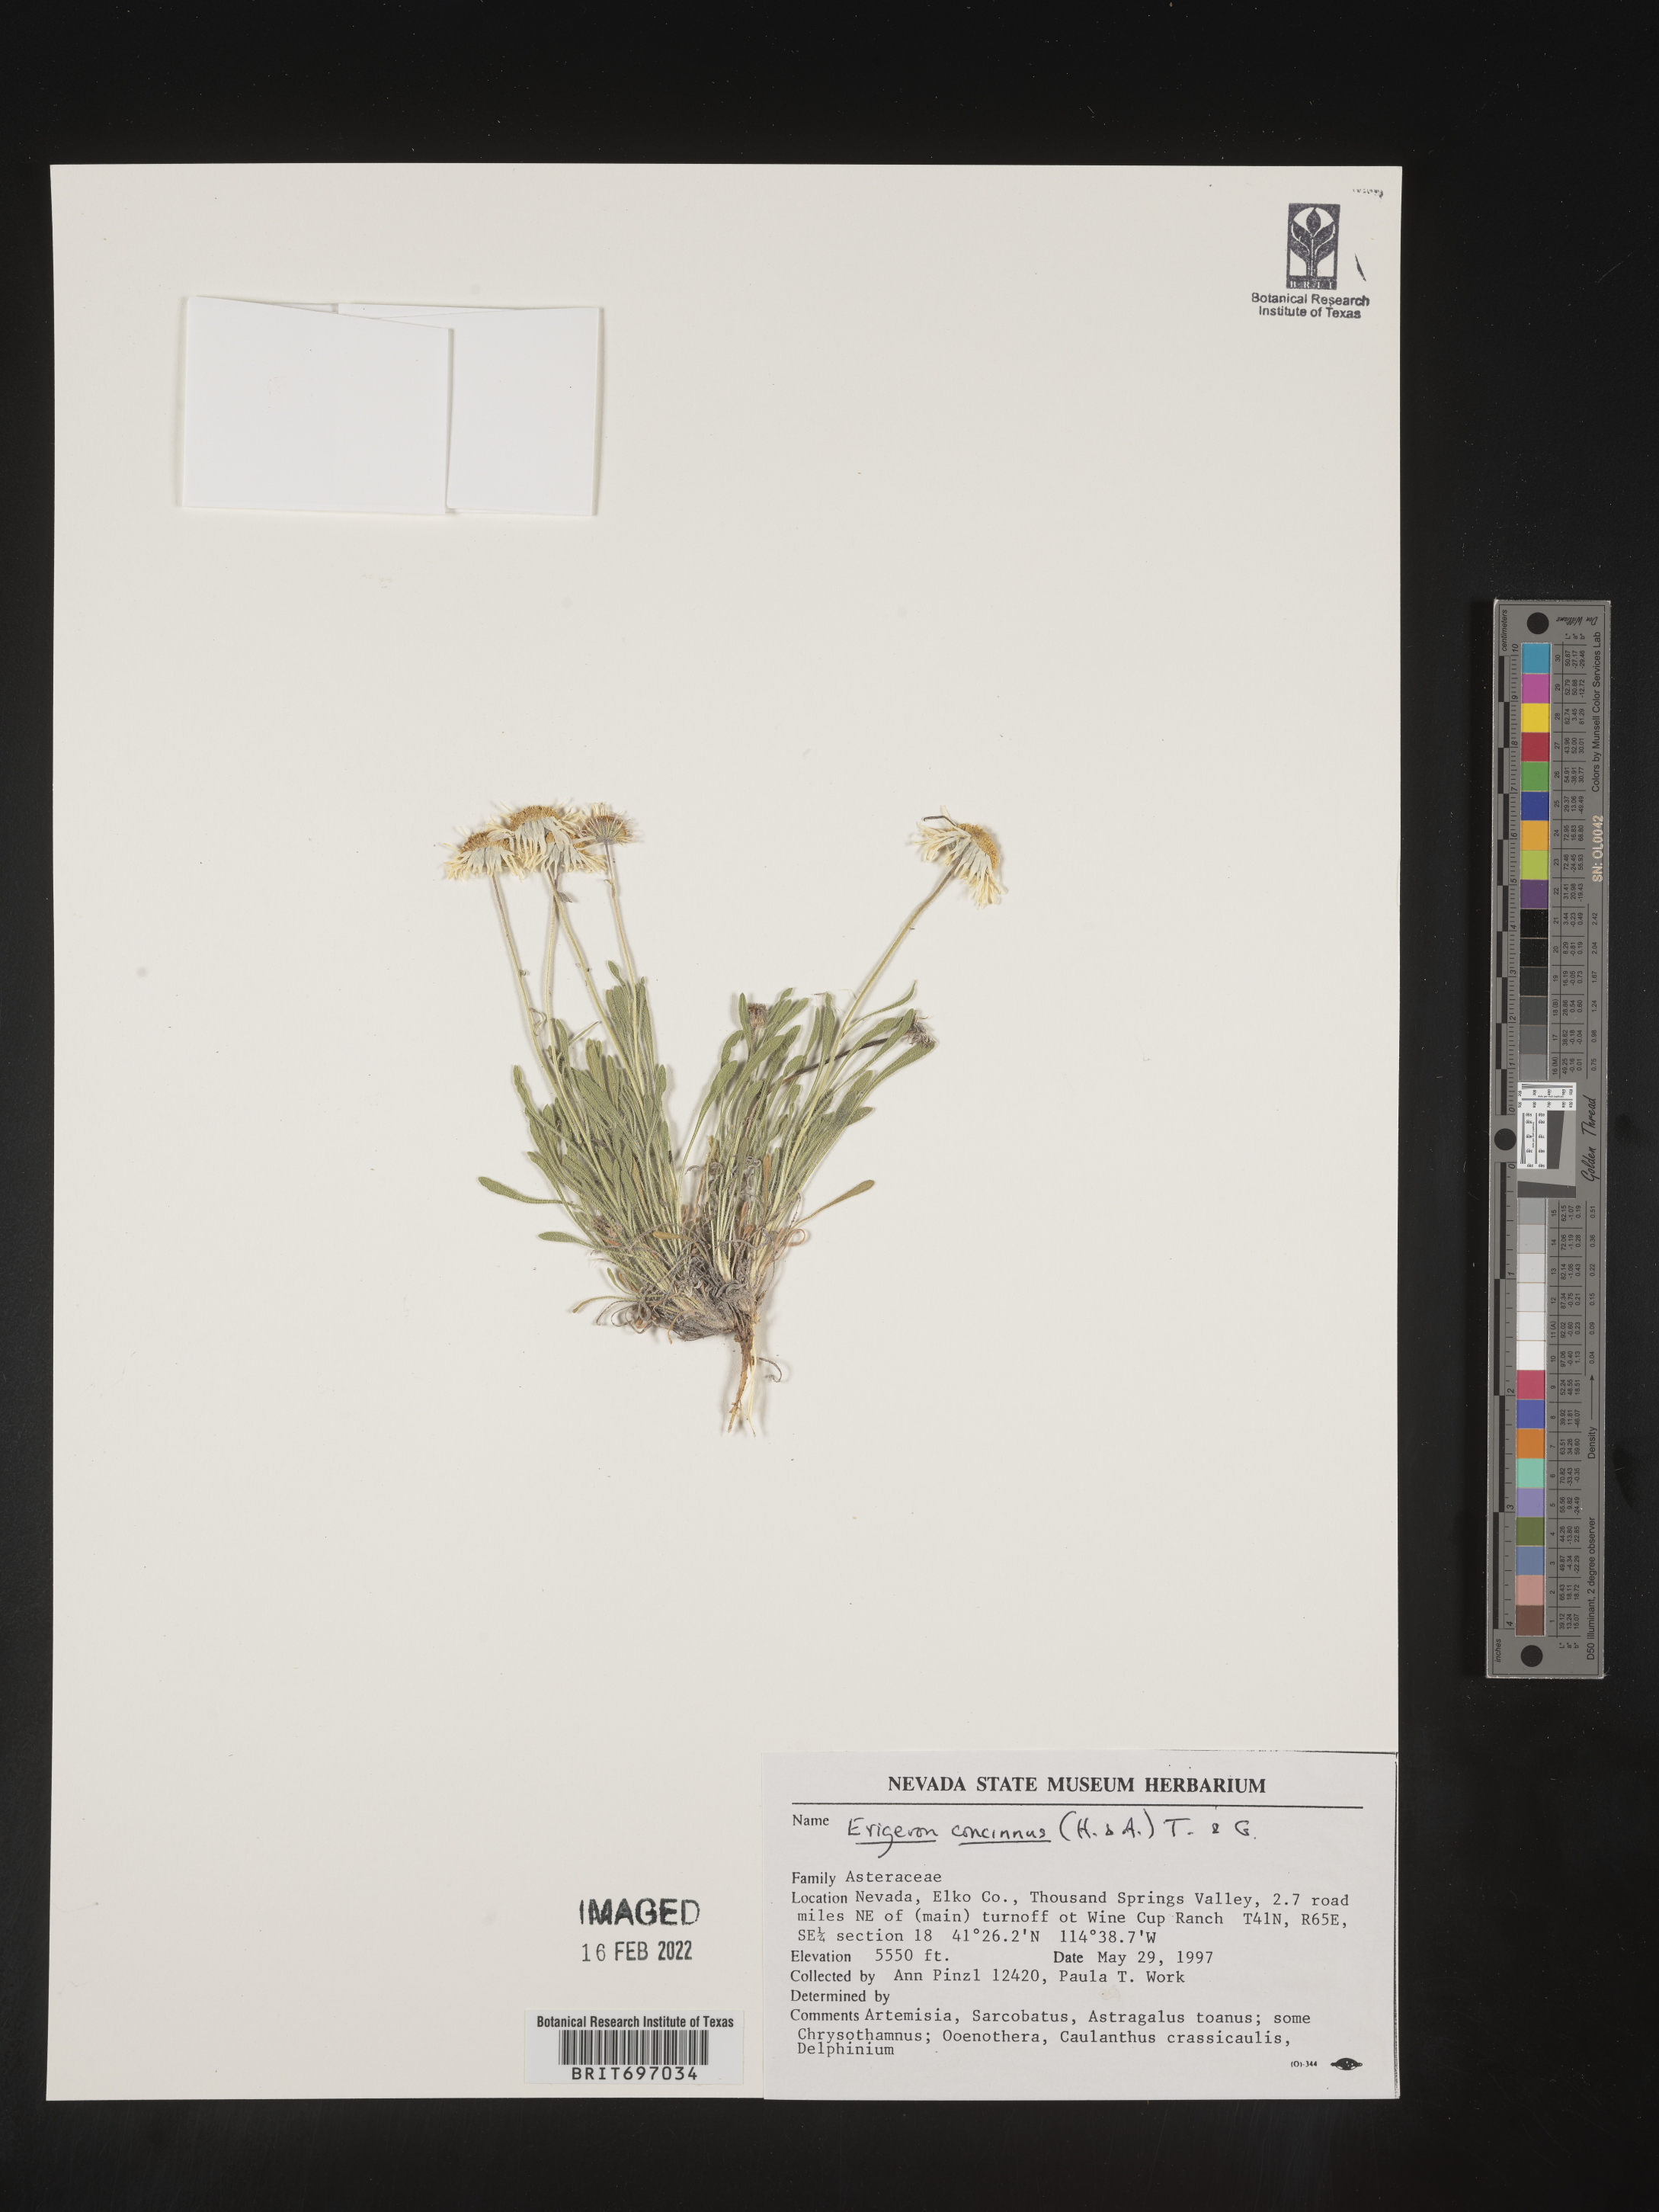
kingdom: Plantae
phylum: Tracheophyta
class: Magnoliopsida
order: Asterales
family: Asteraceae
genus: Erigeron
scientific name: Erigeron concinnus
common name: Navajo fleabane
